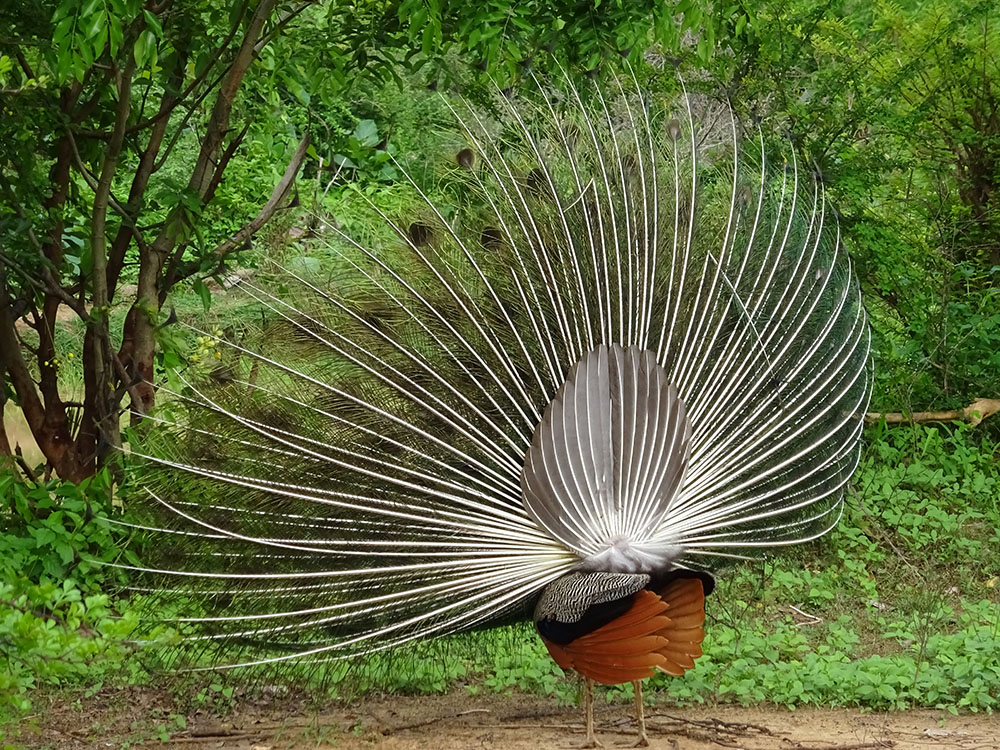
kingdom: Animalia
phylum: Chordata
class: Aves
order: Galliformes
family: Phasianidae
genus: Pavo
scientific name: Pavo cristatus
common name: Indian peafowl
